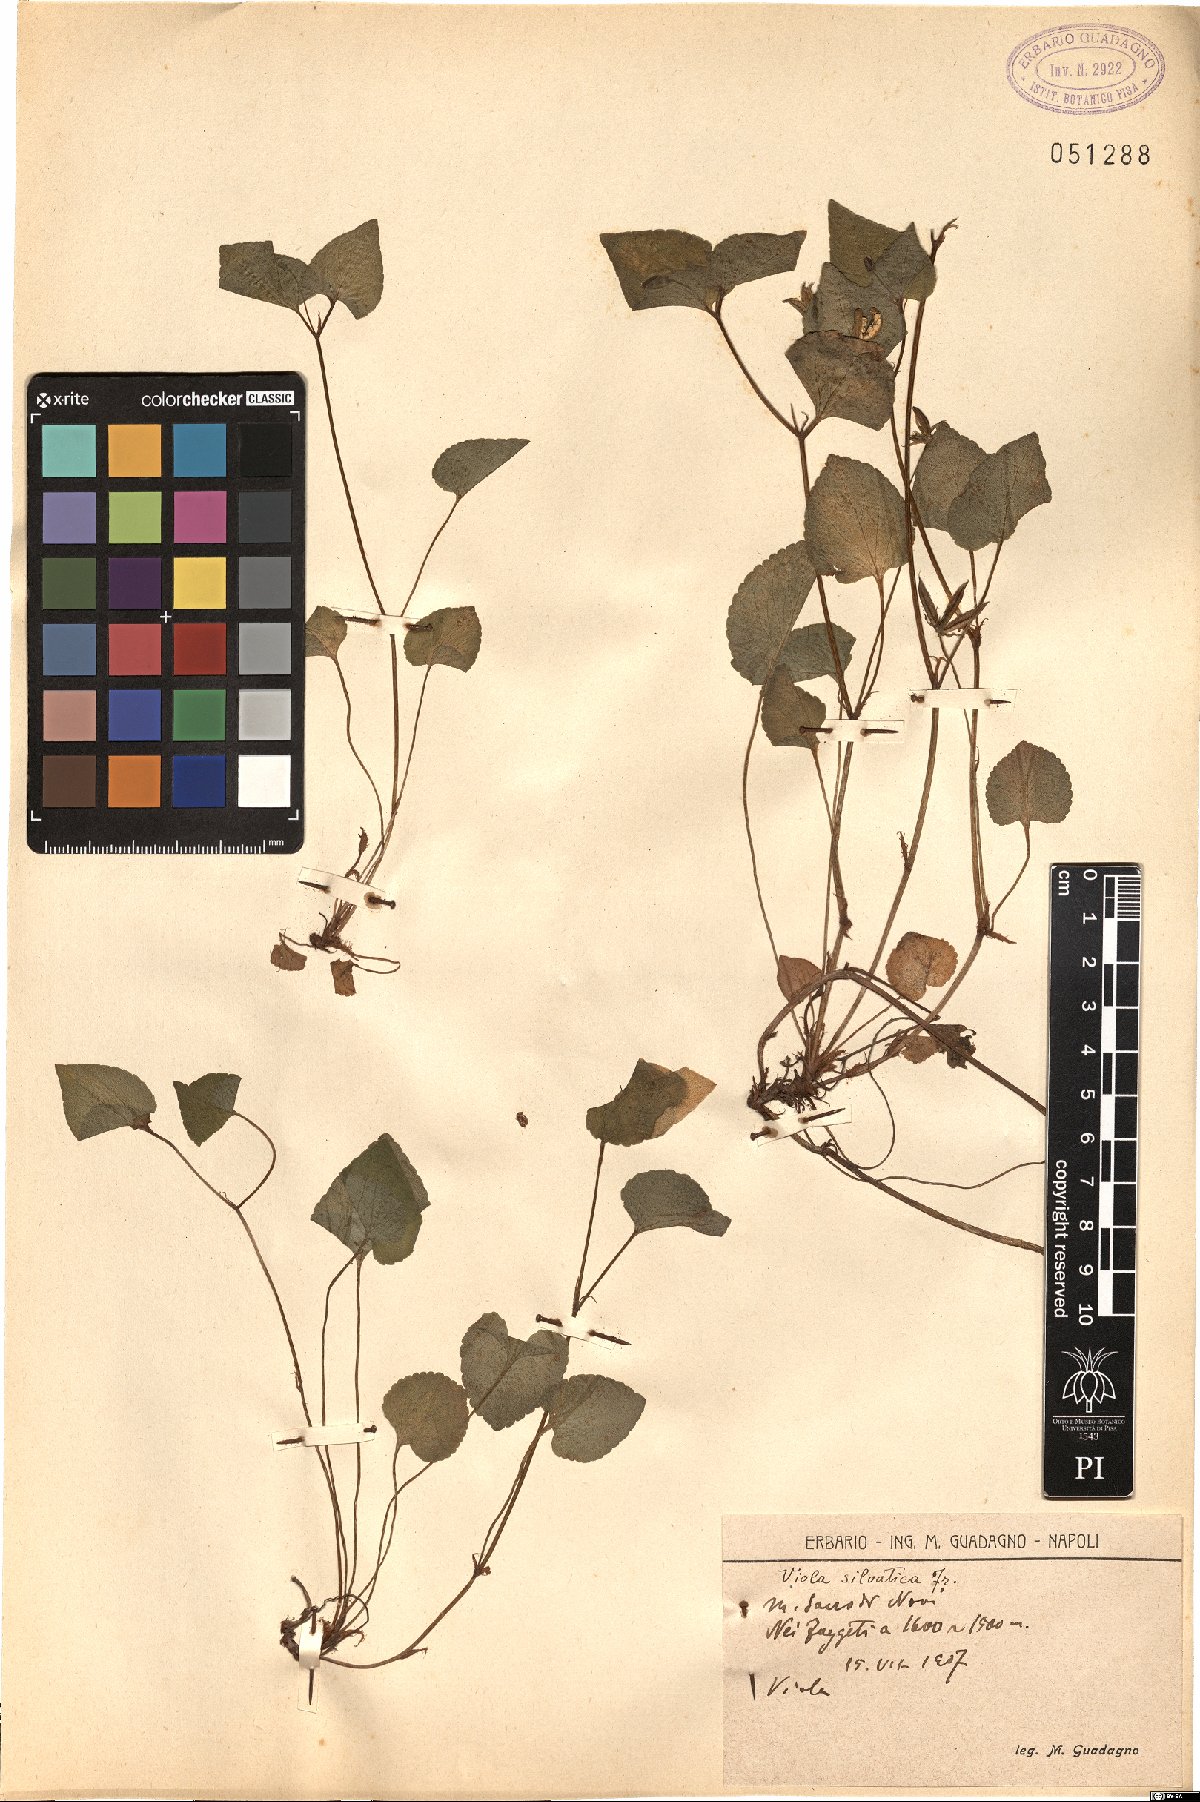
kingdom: Plantae
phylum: Tracheophyta
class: Magnoliopsida
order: Malpighiales
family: Violaceae
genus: Viola
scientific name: Viola riviniana
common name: Common dog-violet
